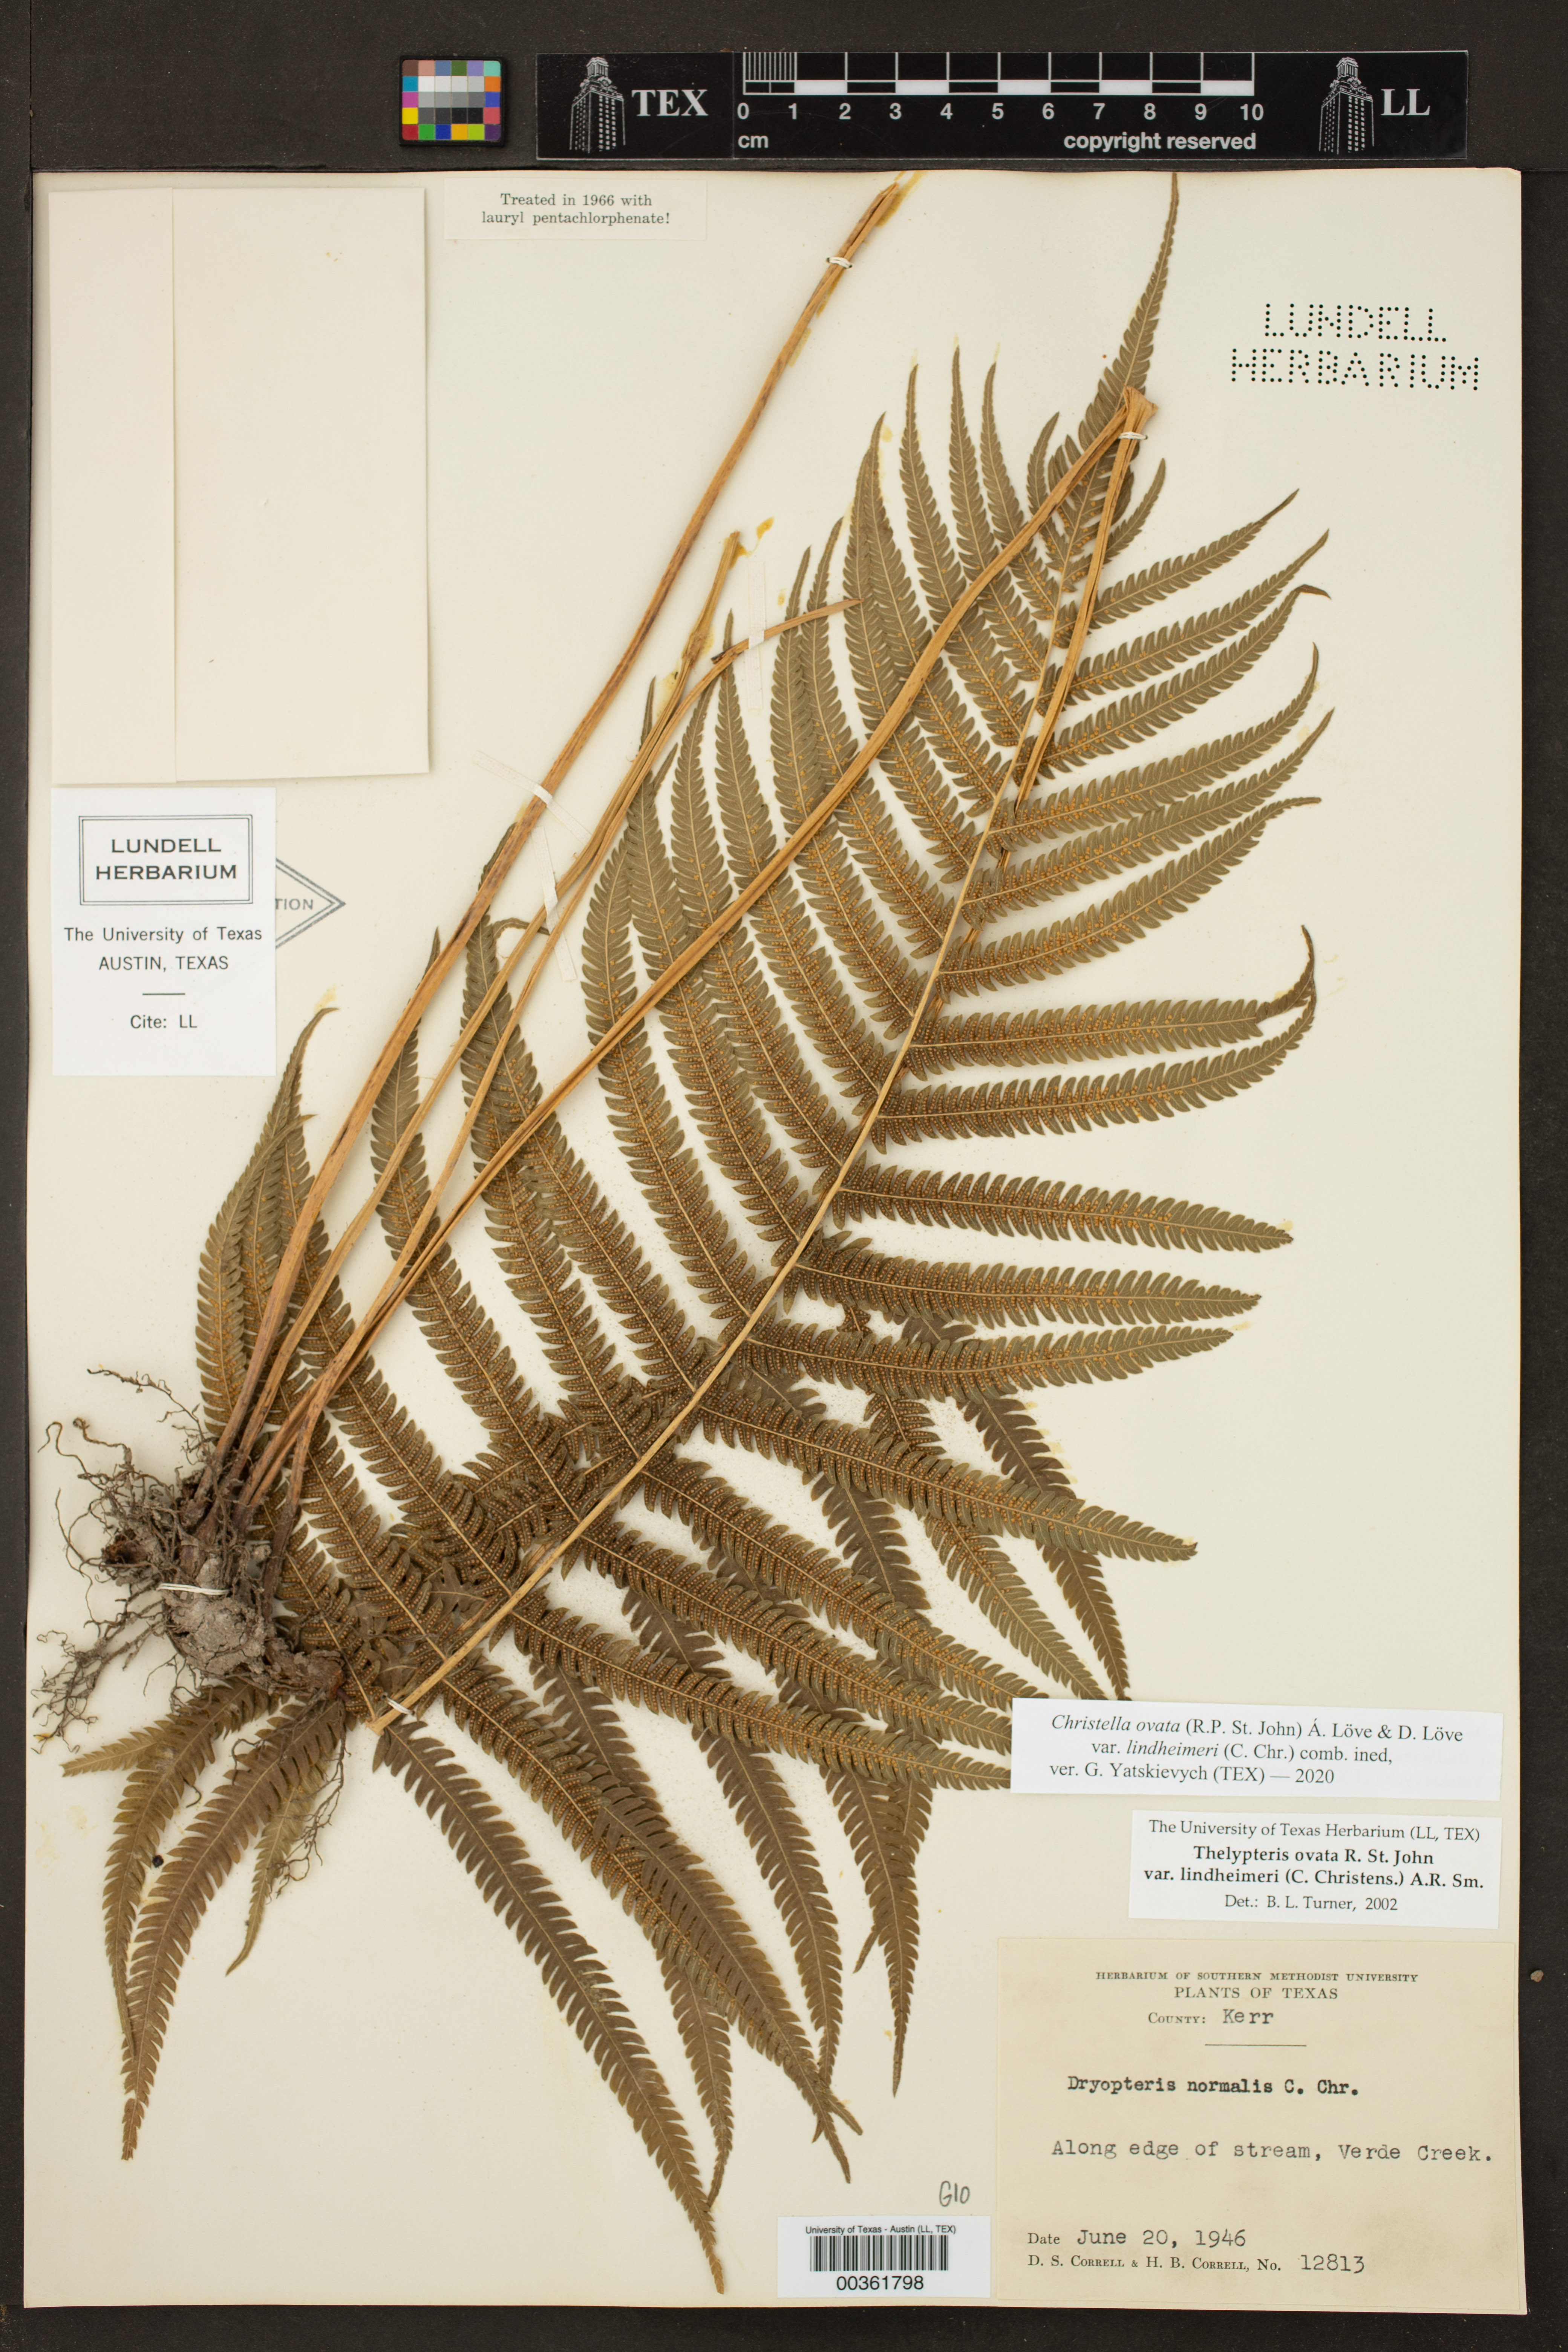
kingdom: Plantae
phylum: Tracheophyta
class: Polypodiopsida
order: Polypodiales
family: Thelypteridaceae
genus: Pelazoneuron
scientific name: Pelazoneuron ovatum
